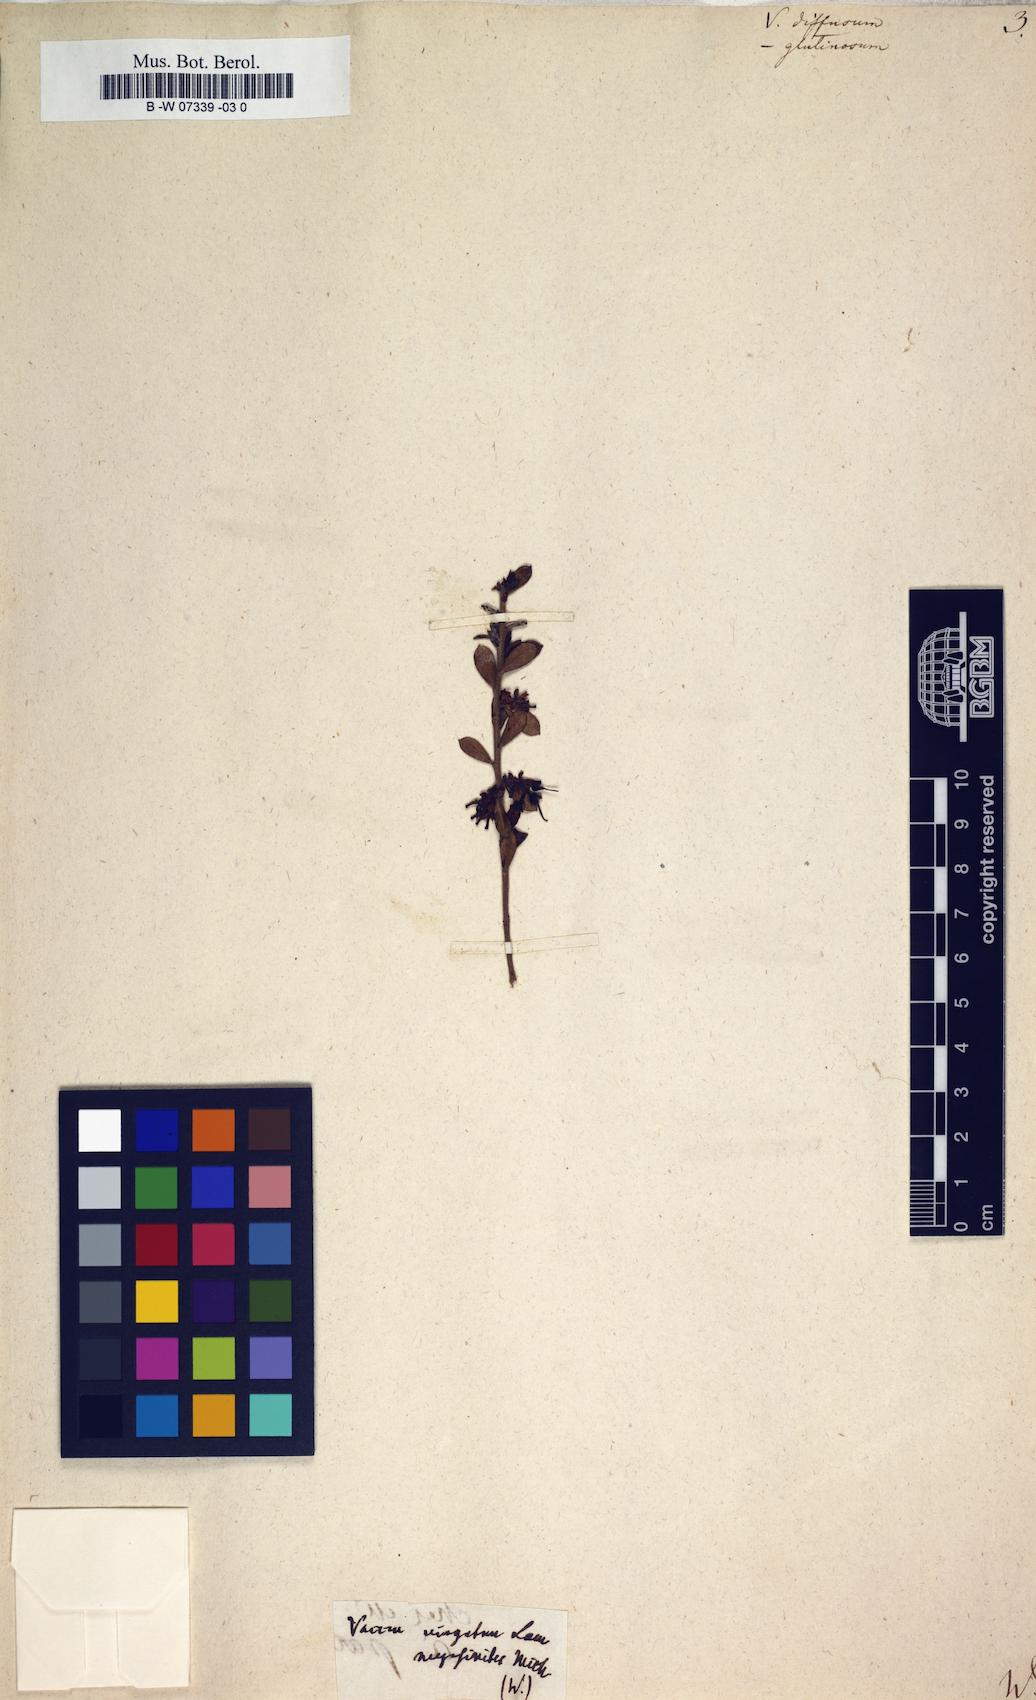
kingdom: Plantae
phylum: Tracheophyta
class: Magnoliopsida
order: Ericales
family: Ericaceae
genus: Vaccinium
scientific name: Vaccinium arboreum
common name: Farkleberry
